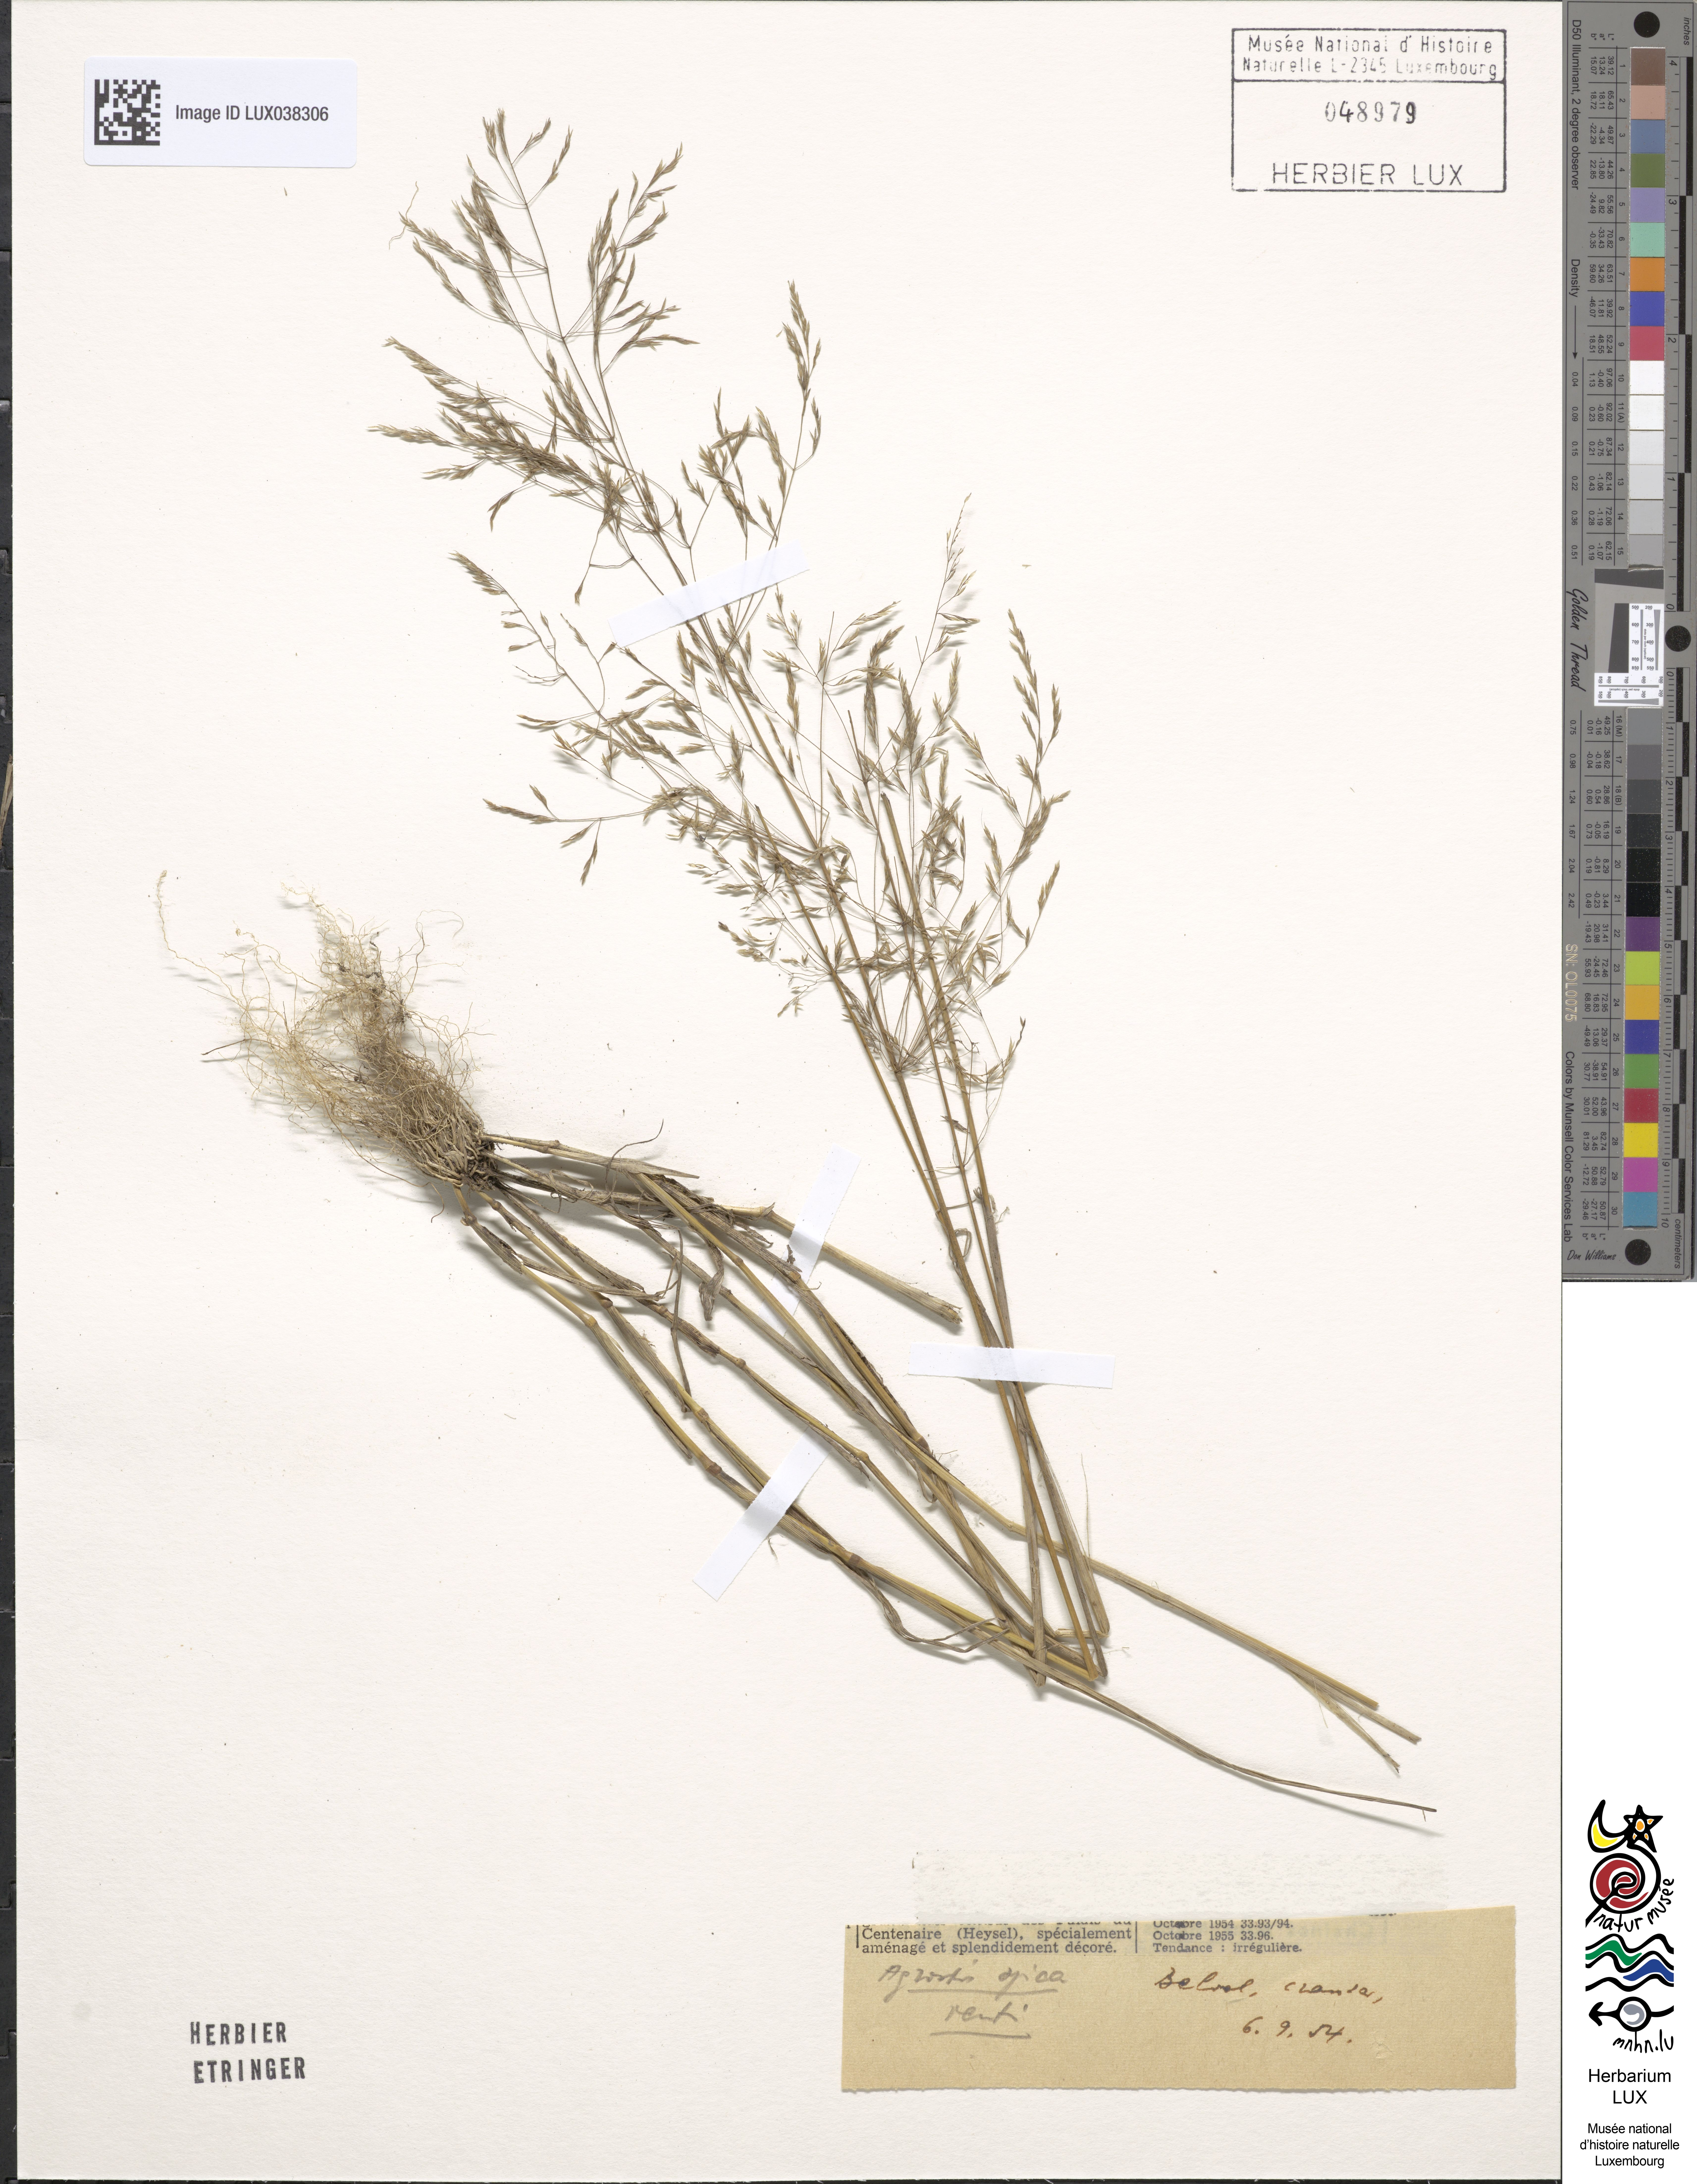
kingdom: Plantae
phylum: Tracheophyta
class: Liliopsida
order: Poales
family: Poaceae
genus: Apera
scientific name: Apera spica-venti
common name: Loose silky-bent
